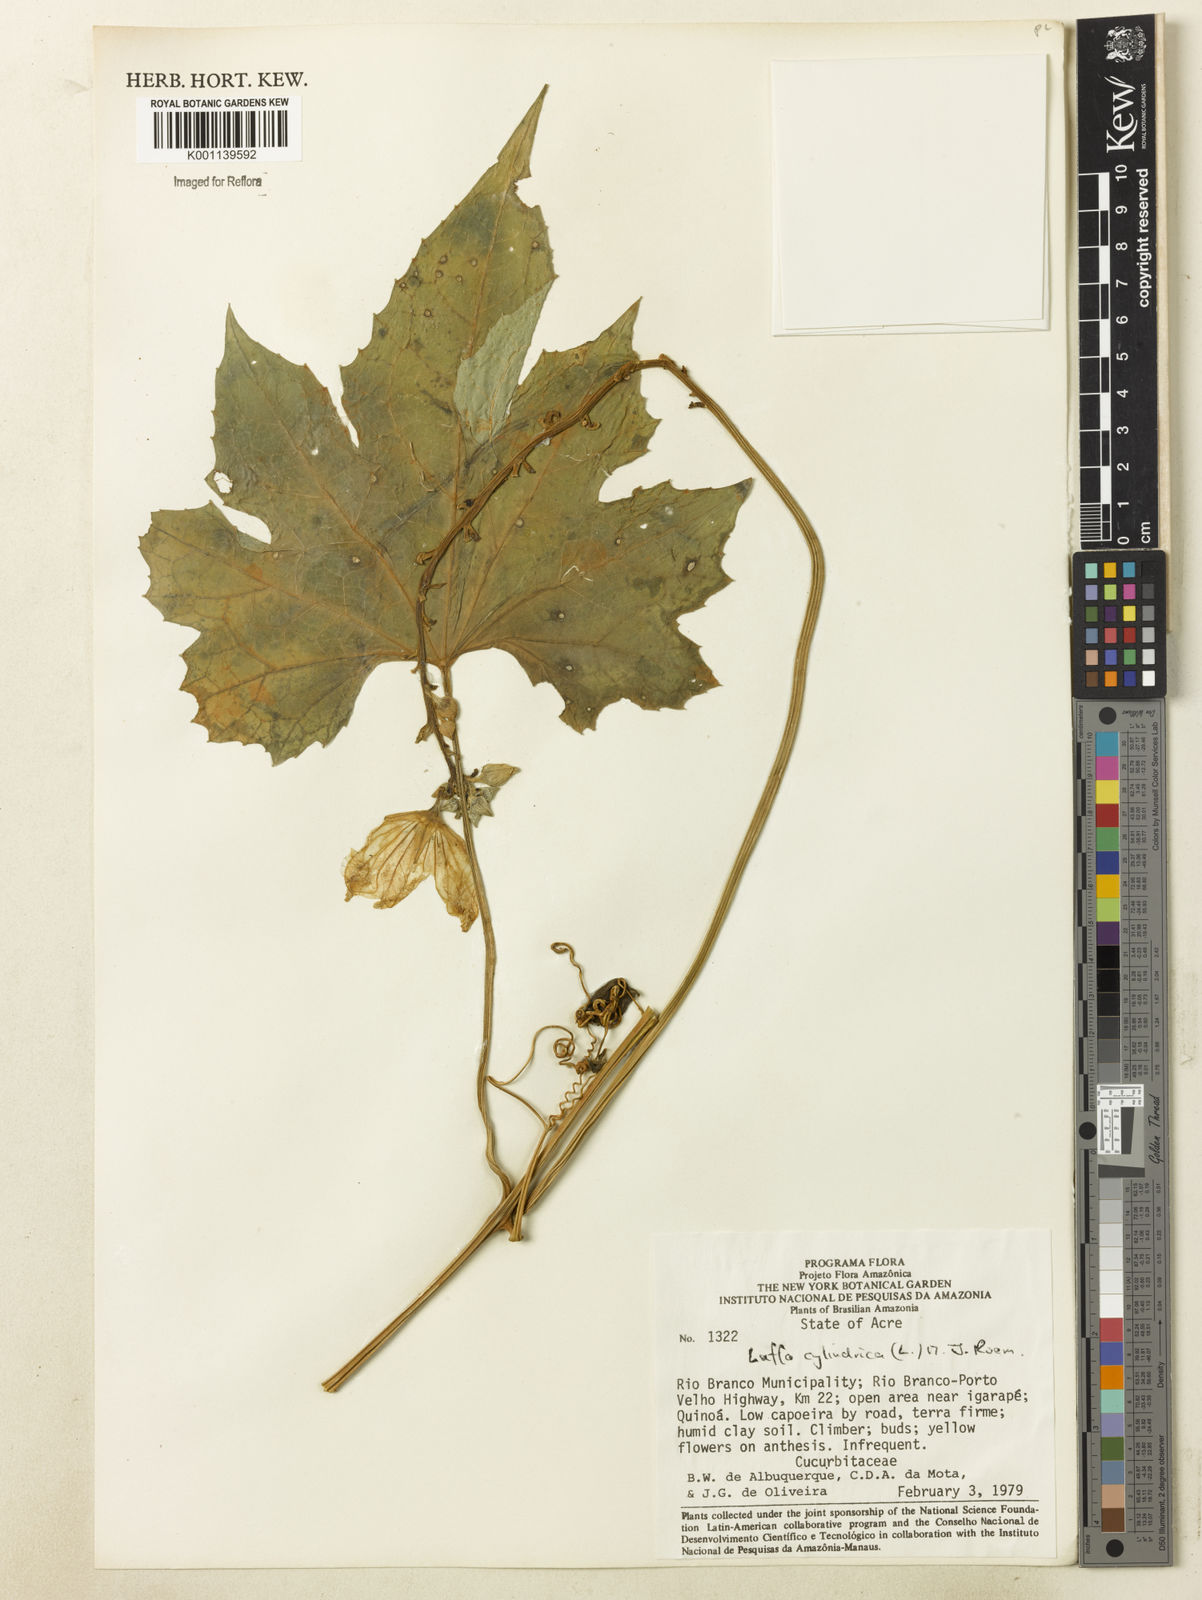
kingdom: Plantae
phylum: Tracheophyta
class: Magnoliopsida
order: Cucurbitales
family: Cucurbitaceae
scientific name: Cucurbitaceae
